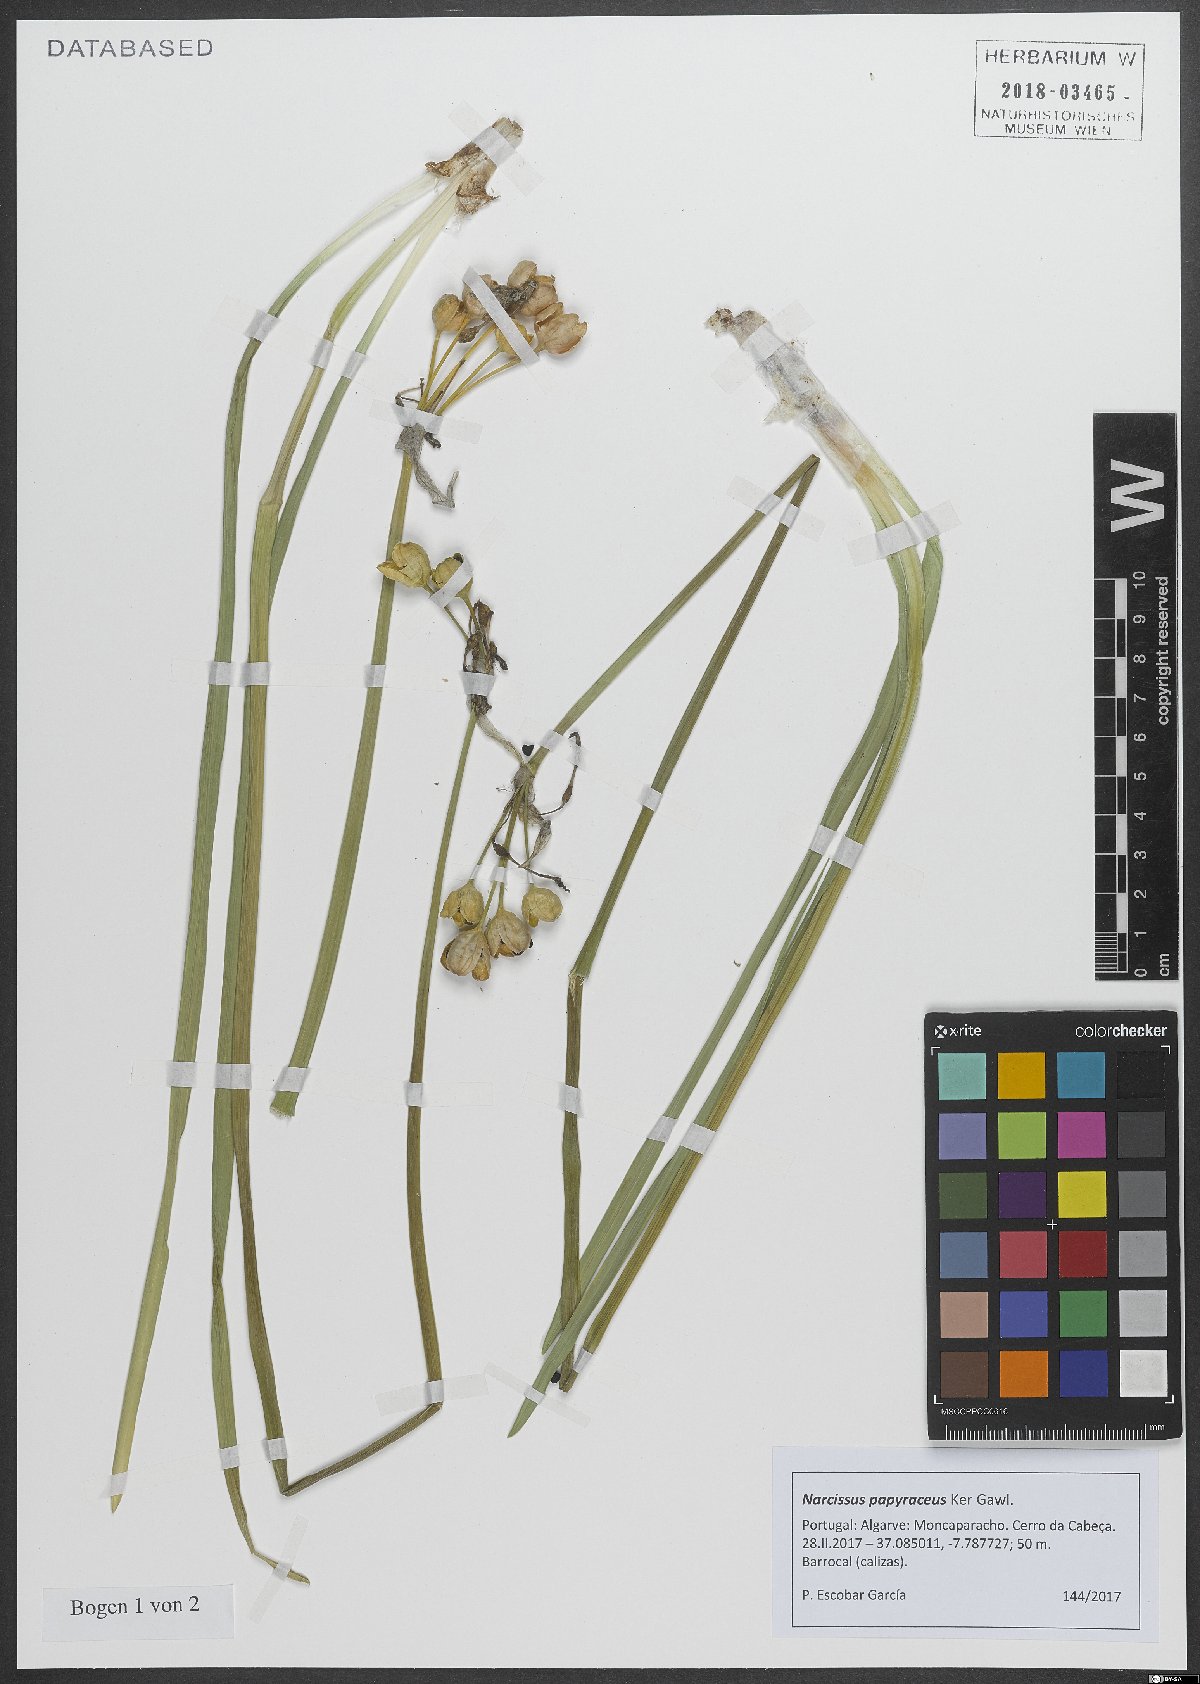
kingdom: Plantae
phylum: Tracheophyta
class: Liliopsida
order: Asparagales
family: Amaryllidaceae
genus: Narcissus
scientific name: Narcissus papyraceus
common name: Paper-white daffodil
